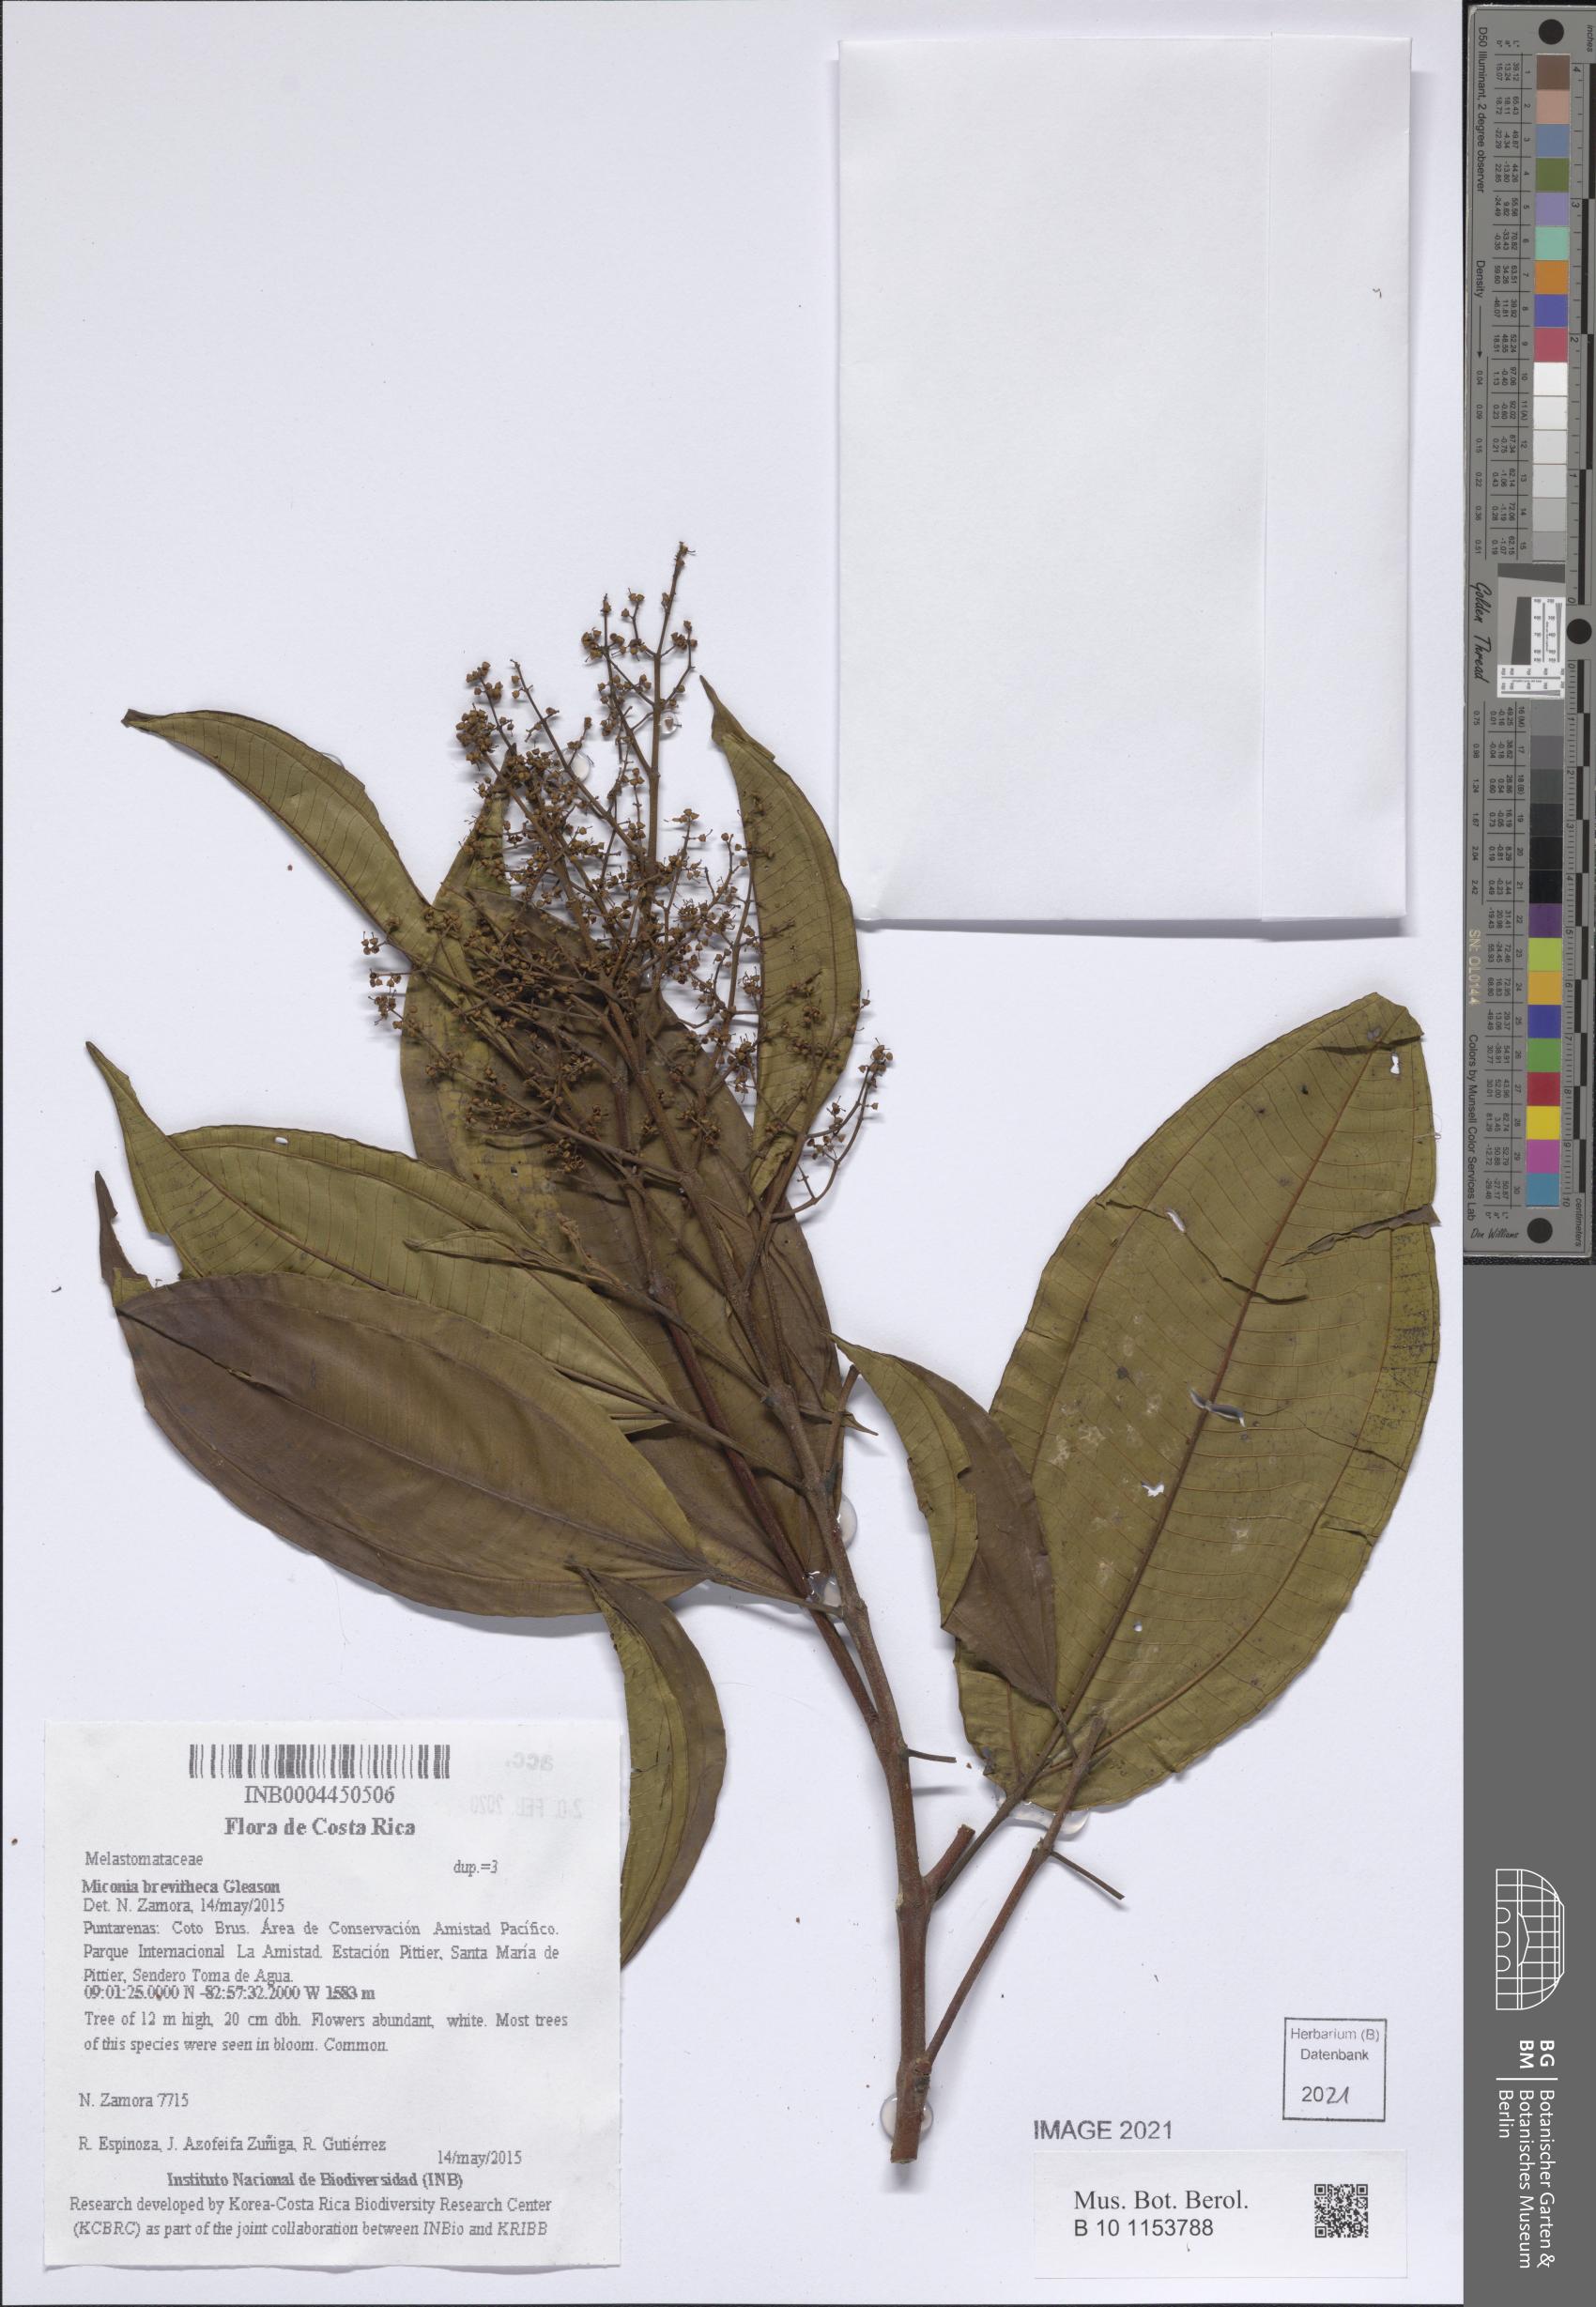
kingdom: Plantae
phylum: Tracheophyta
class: Magnoliopsida
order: Myrtales
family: Melastomataceae
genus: Miconia
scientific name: Miconia brevitheca
